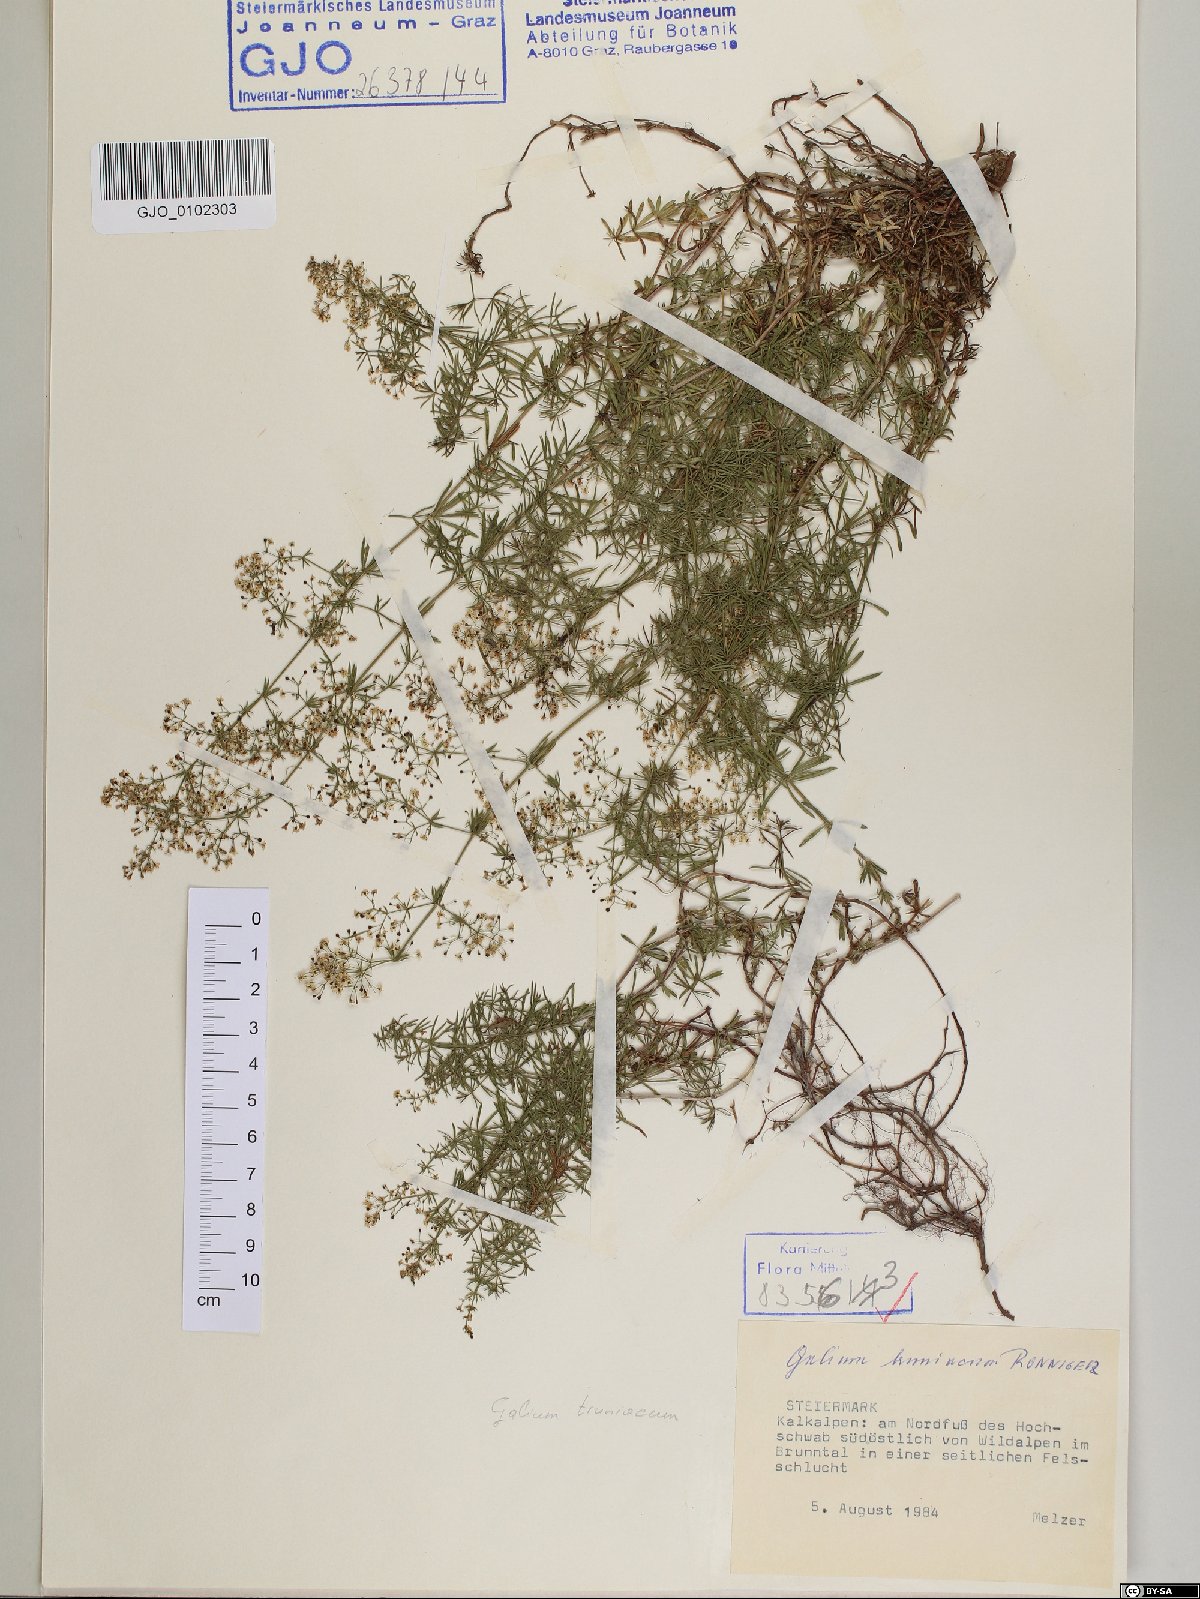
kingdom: Plantae
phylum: Tracheophyta
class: Magnoliopsida
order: Gentianales
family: Rubiaceae
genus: Galium
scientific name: Galium truniacum
